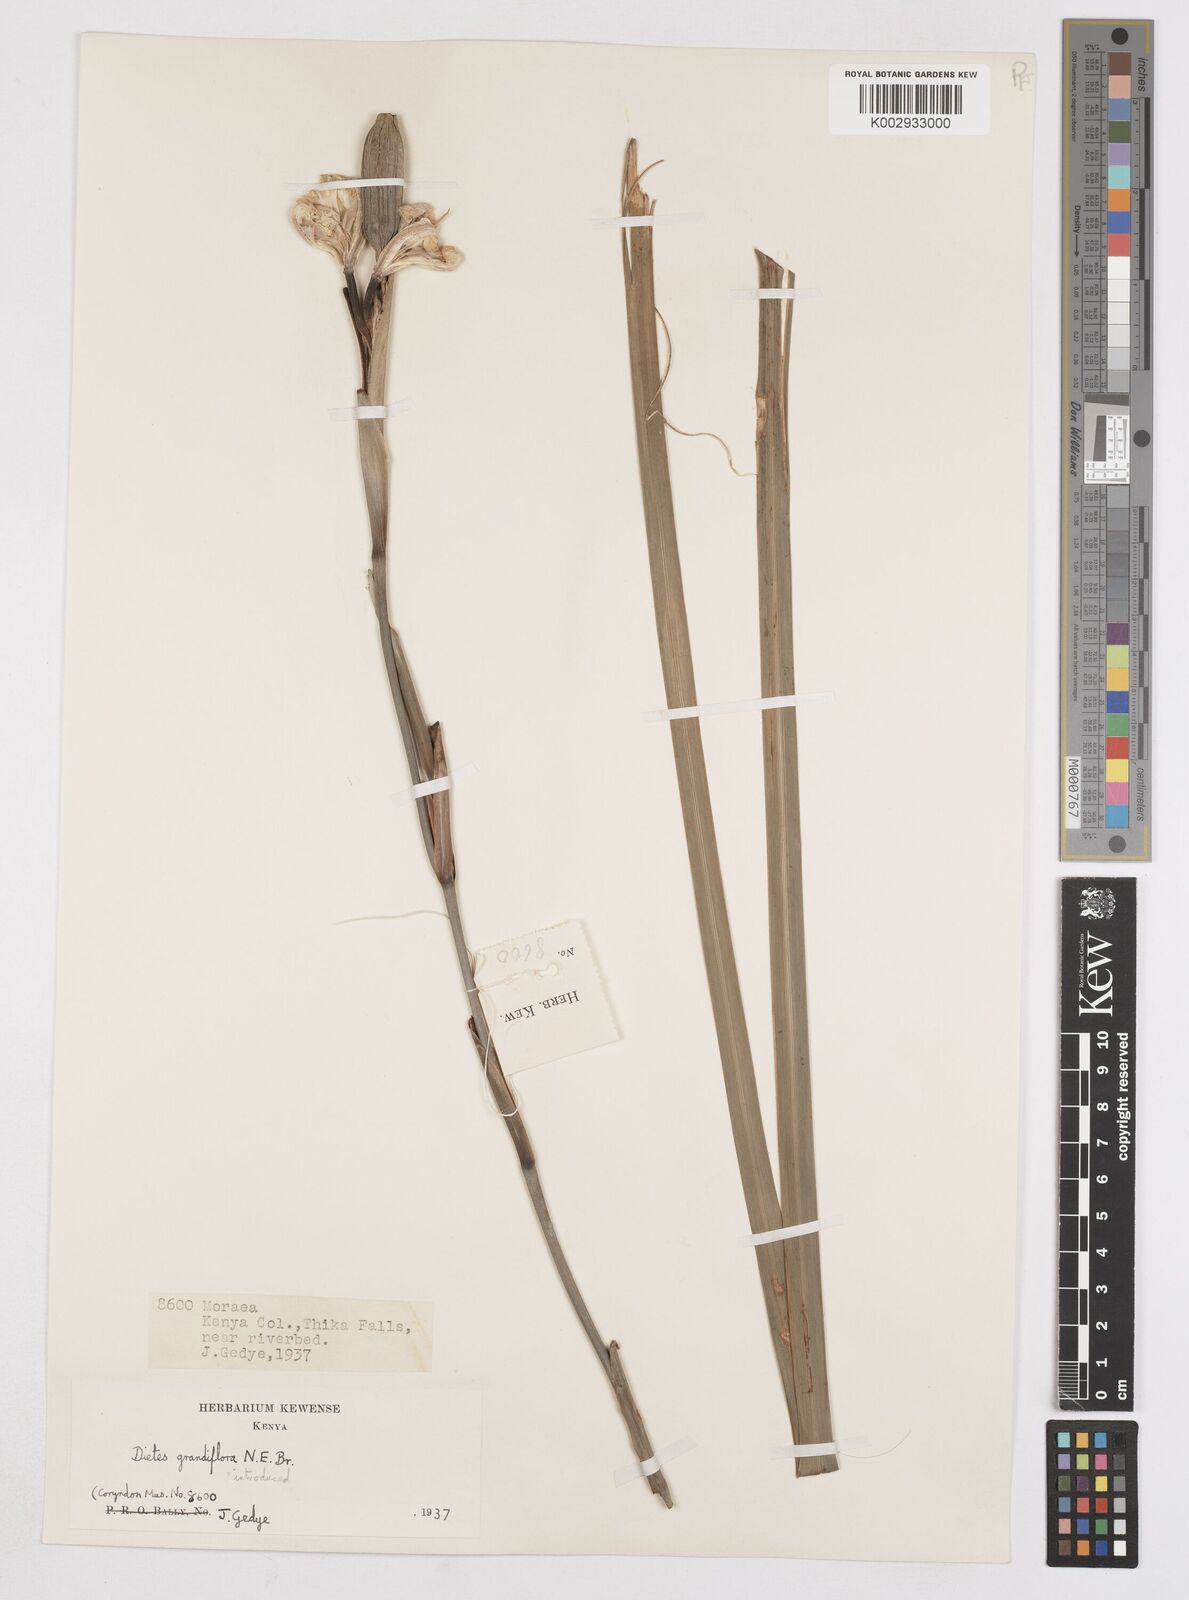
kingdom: Plantae
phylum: Tracheophyta
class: Liliopsida
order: Asparagales
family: Iridaceae
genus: Dietes
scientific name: Dietes grandiflora
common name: Wild iris
